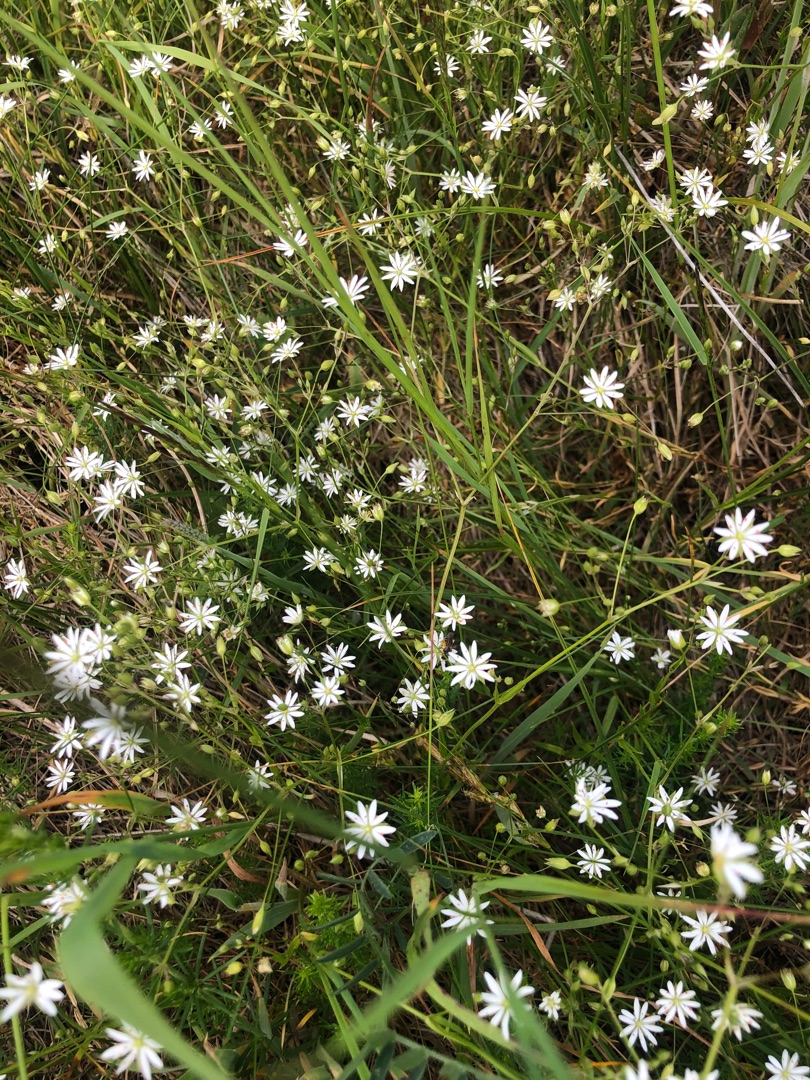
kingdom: Plantae
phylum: Tracheophyta
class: Magnoliopsida
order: Caryophyllales
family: Caryophyllaceae
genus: Stellaria
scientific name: Stellaria graminea
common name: Græsbladet fladstjerne
